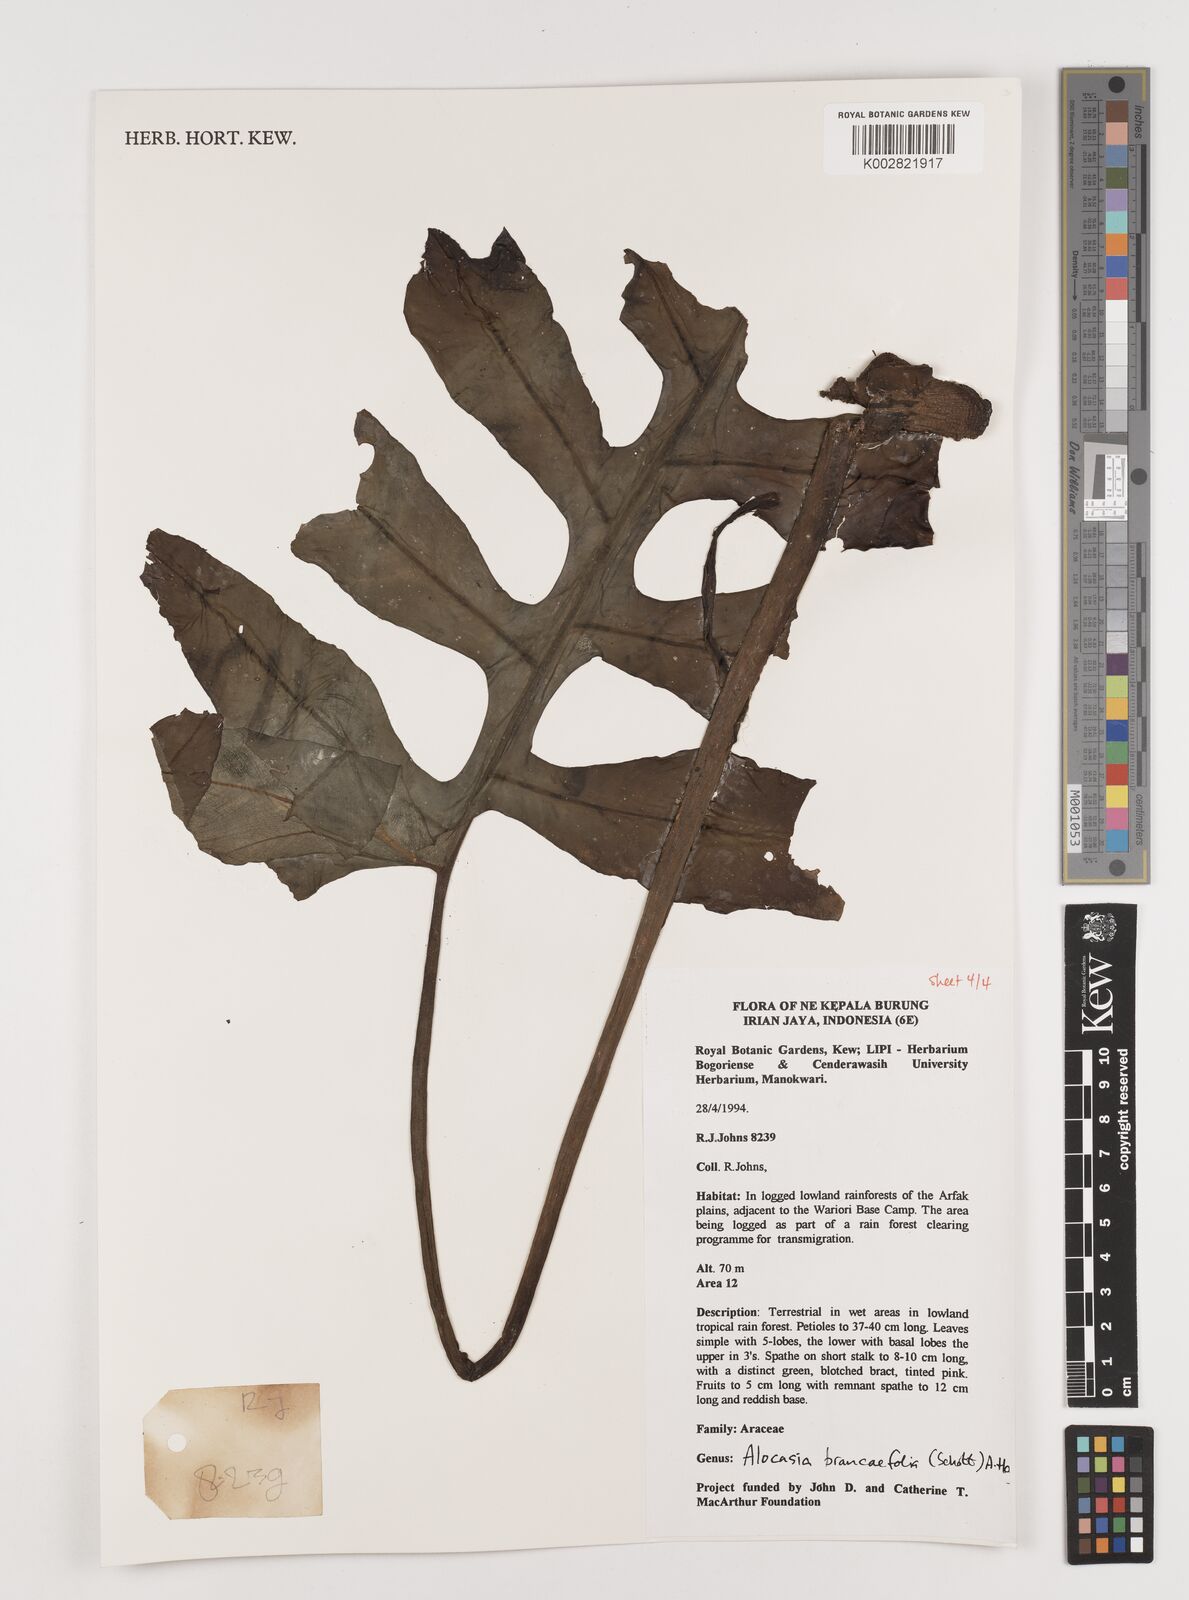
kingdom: Plantae
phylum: Tracheophyta
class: Liliopsida
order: Alismatales
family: Araceae
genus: Alocasia
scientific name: Alocasia brancifolia
